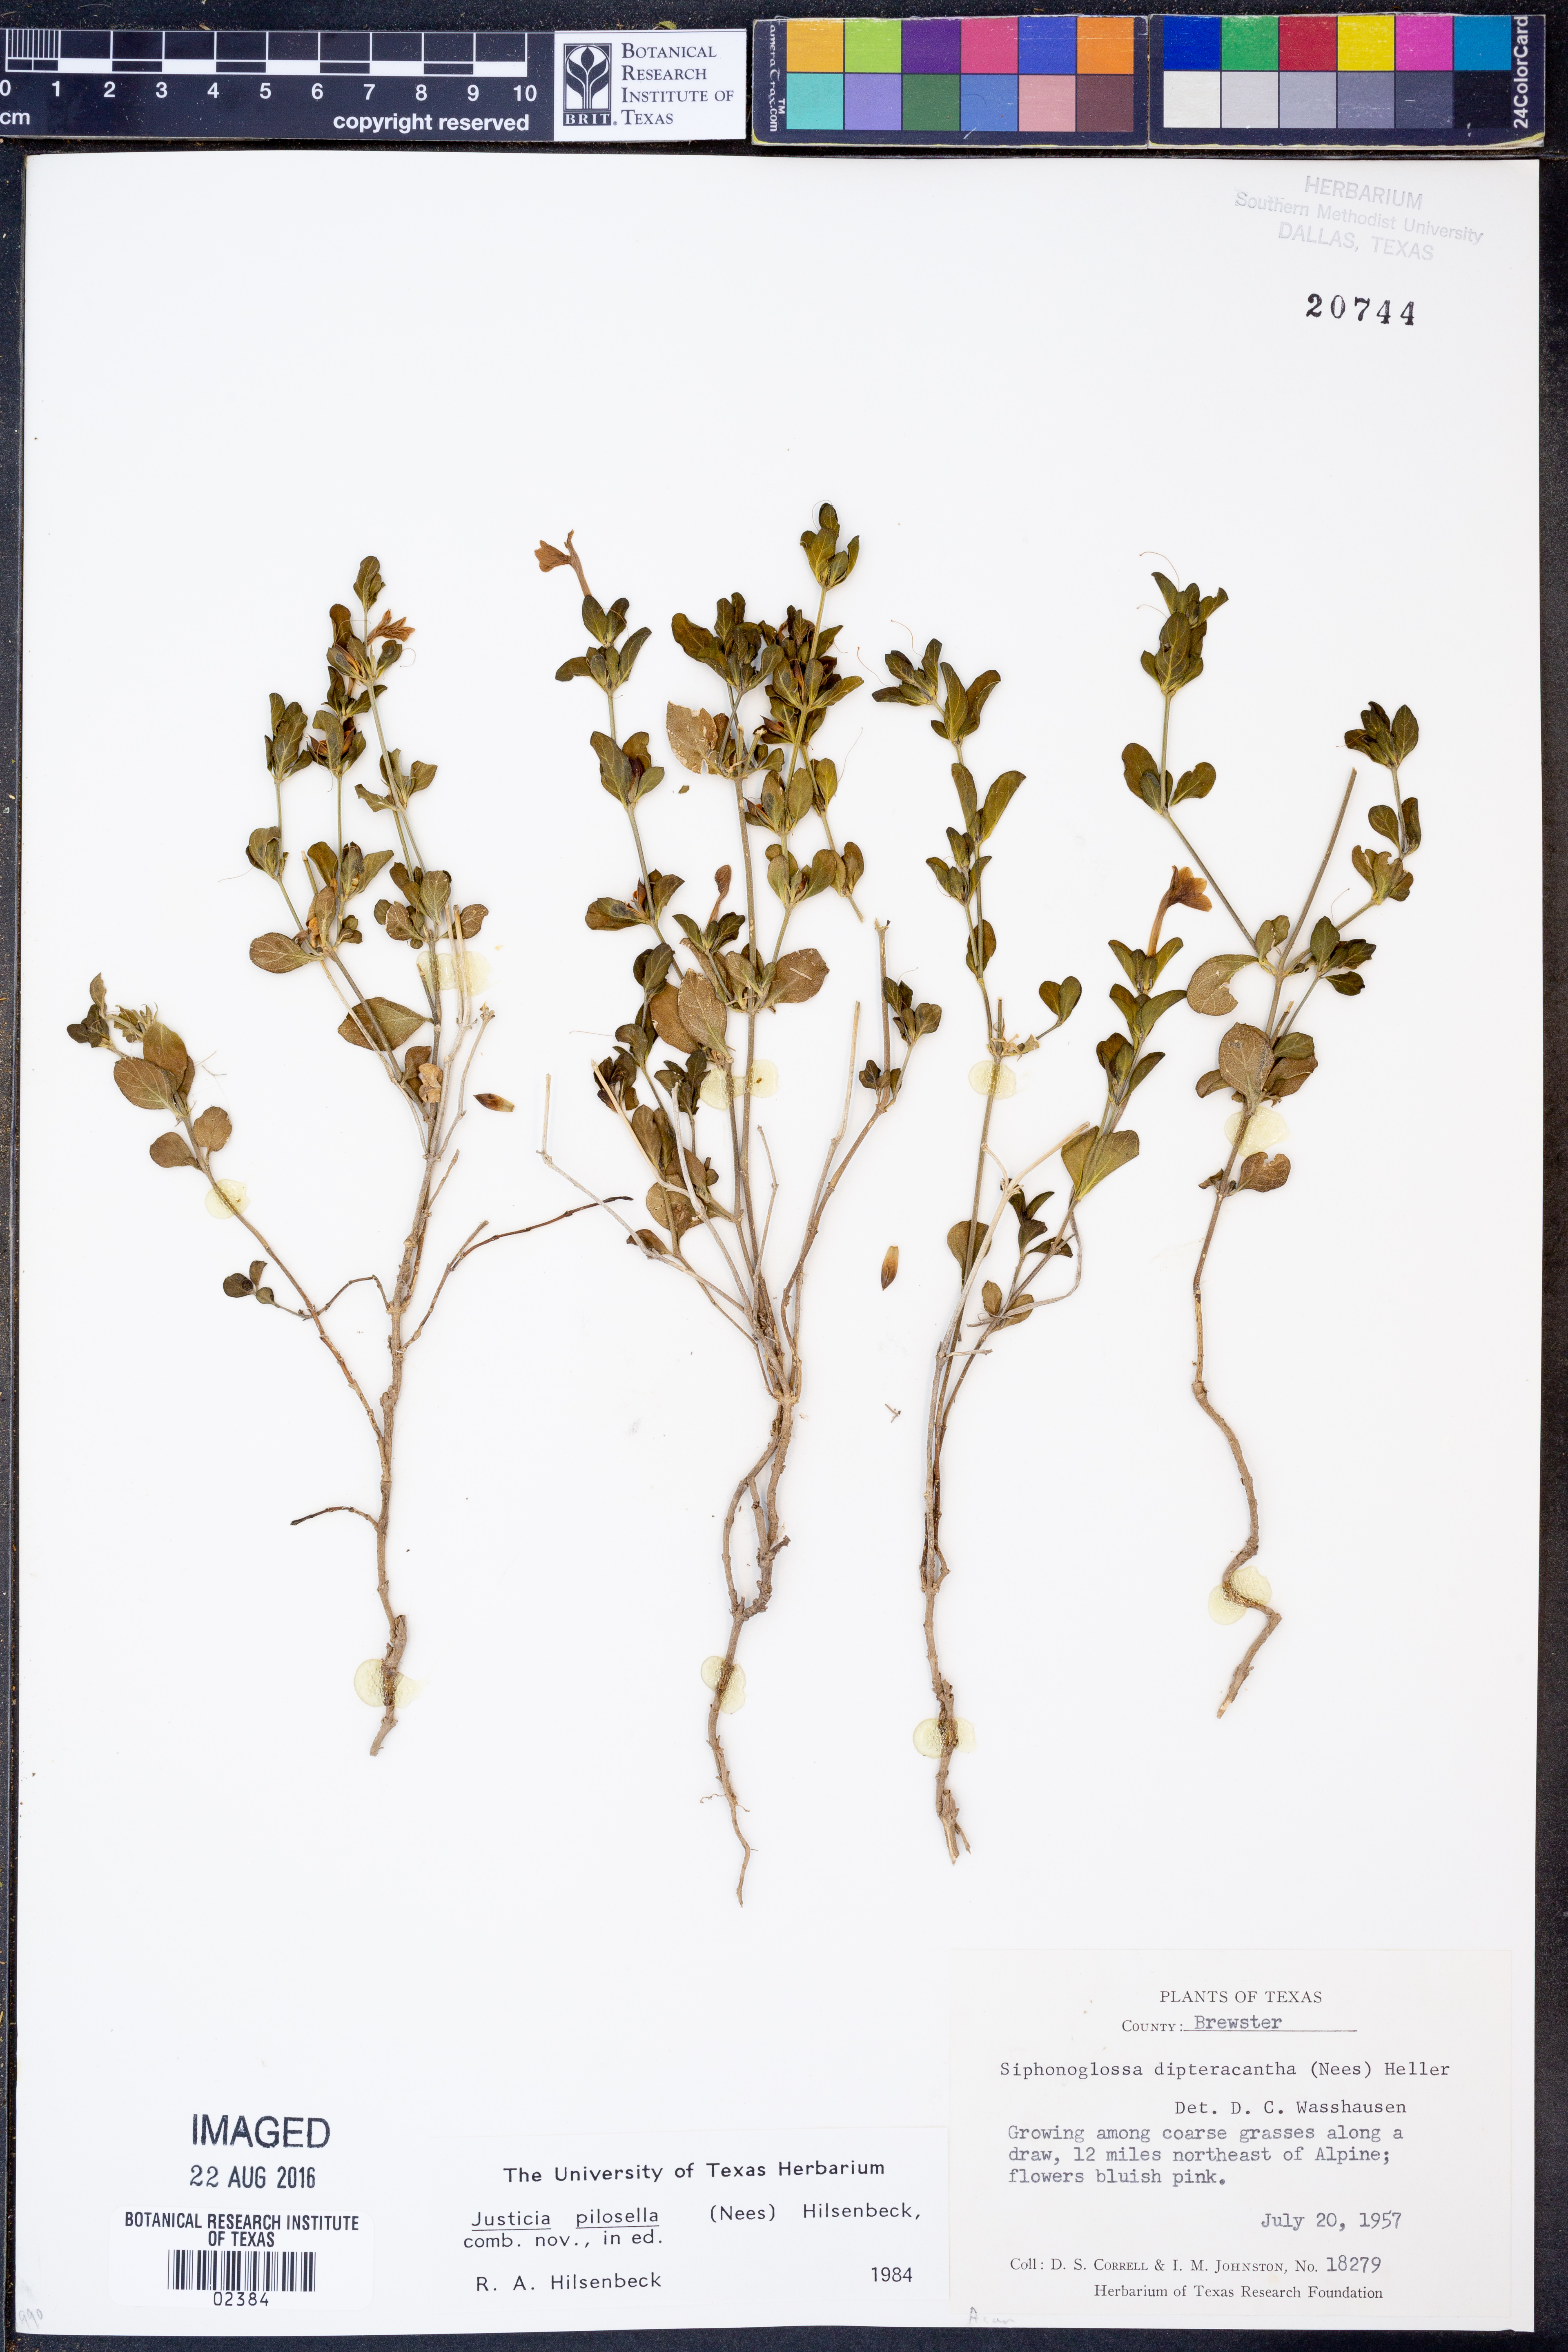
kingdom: Plantae
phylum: Tracheophyta
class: Magnoliopsida
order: Lamiales
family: Acanthaceae
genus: Justicia
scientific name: Justicia pilosella
